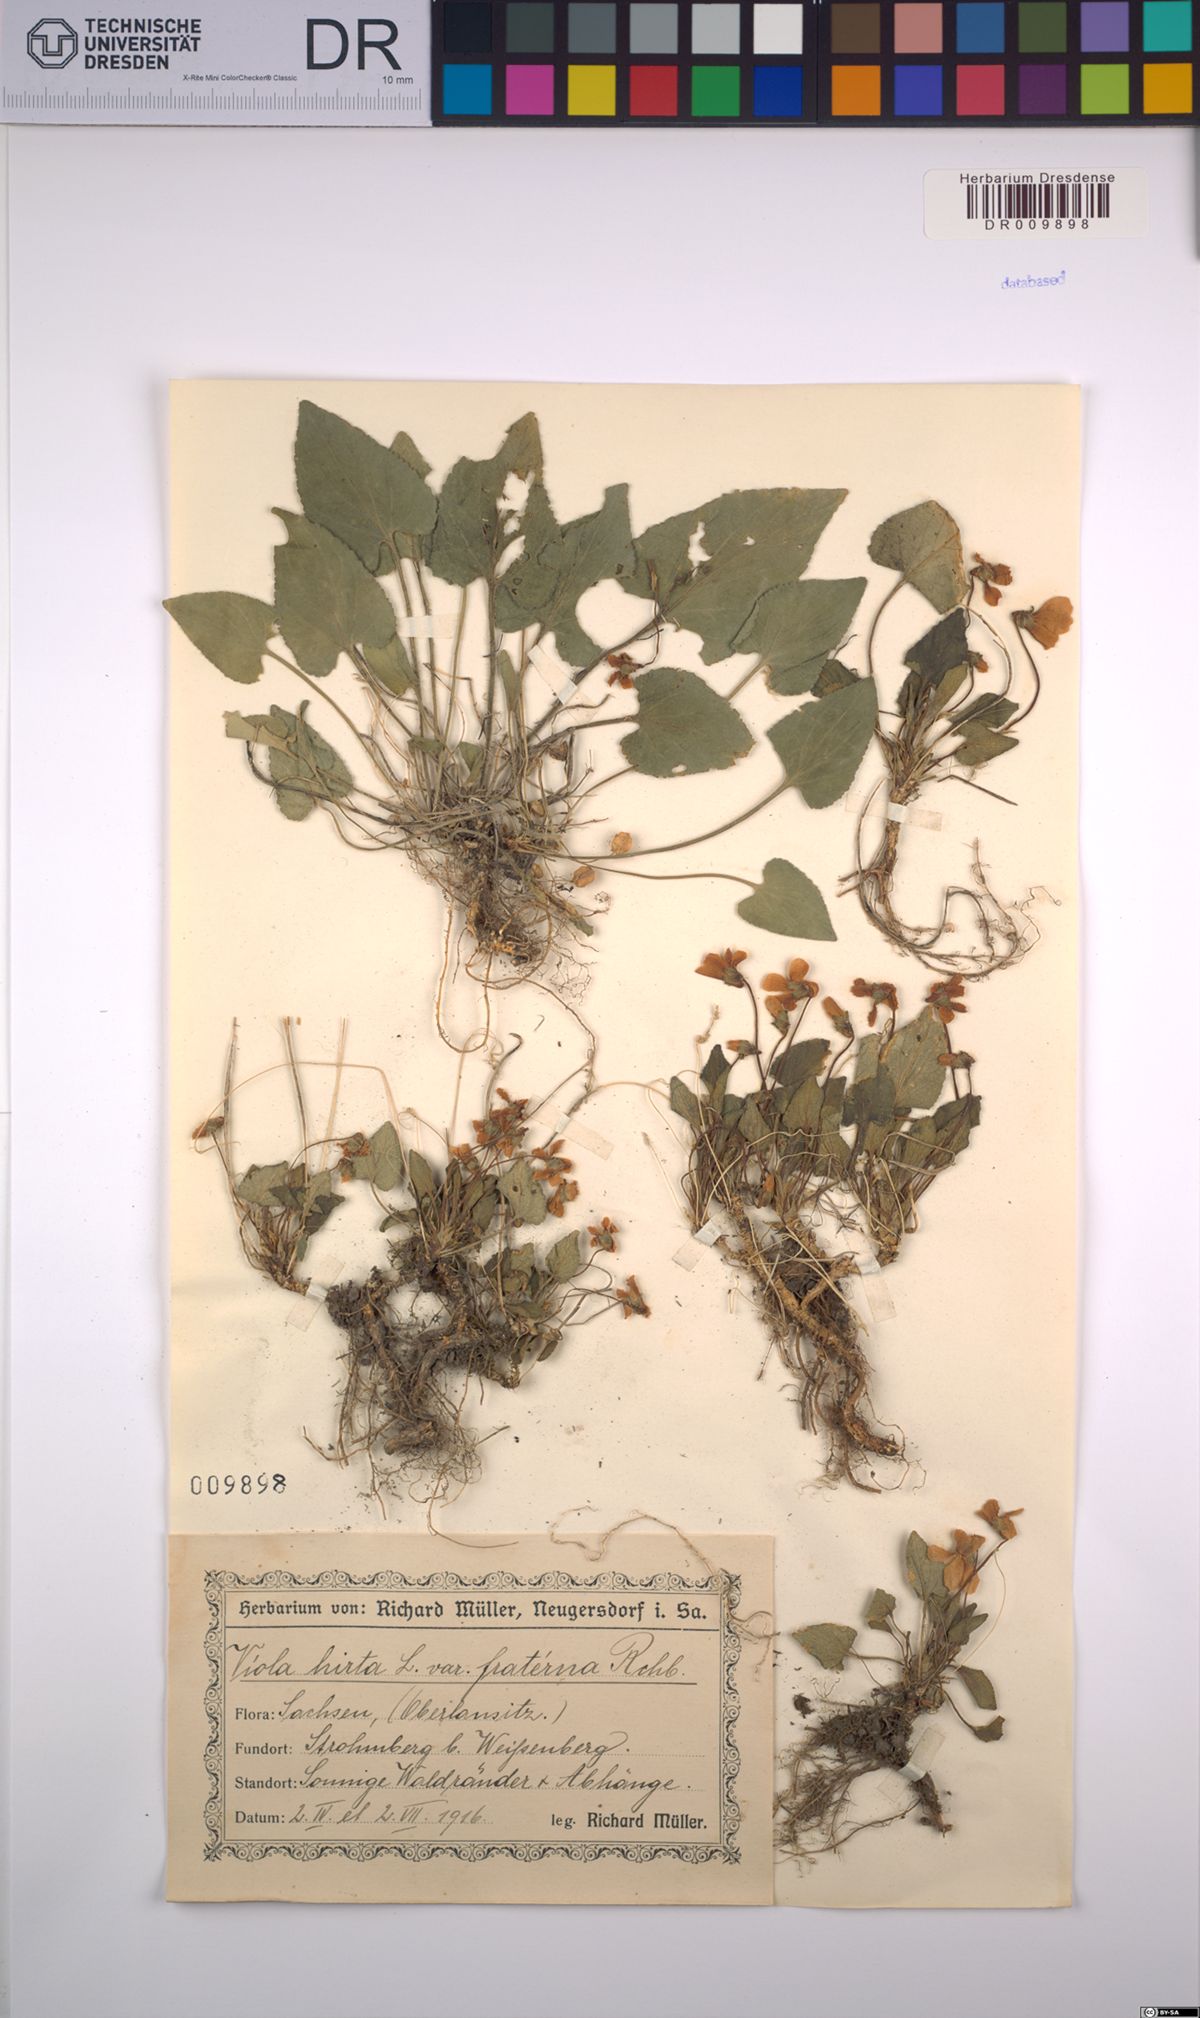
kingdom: Plantae
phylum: Tracheophyta
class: Magnoliopsida
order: Malpighiales
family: Violaceae
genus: Viola
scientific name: Viola hirta
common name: Hairy violet
